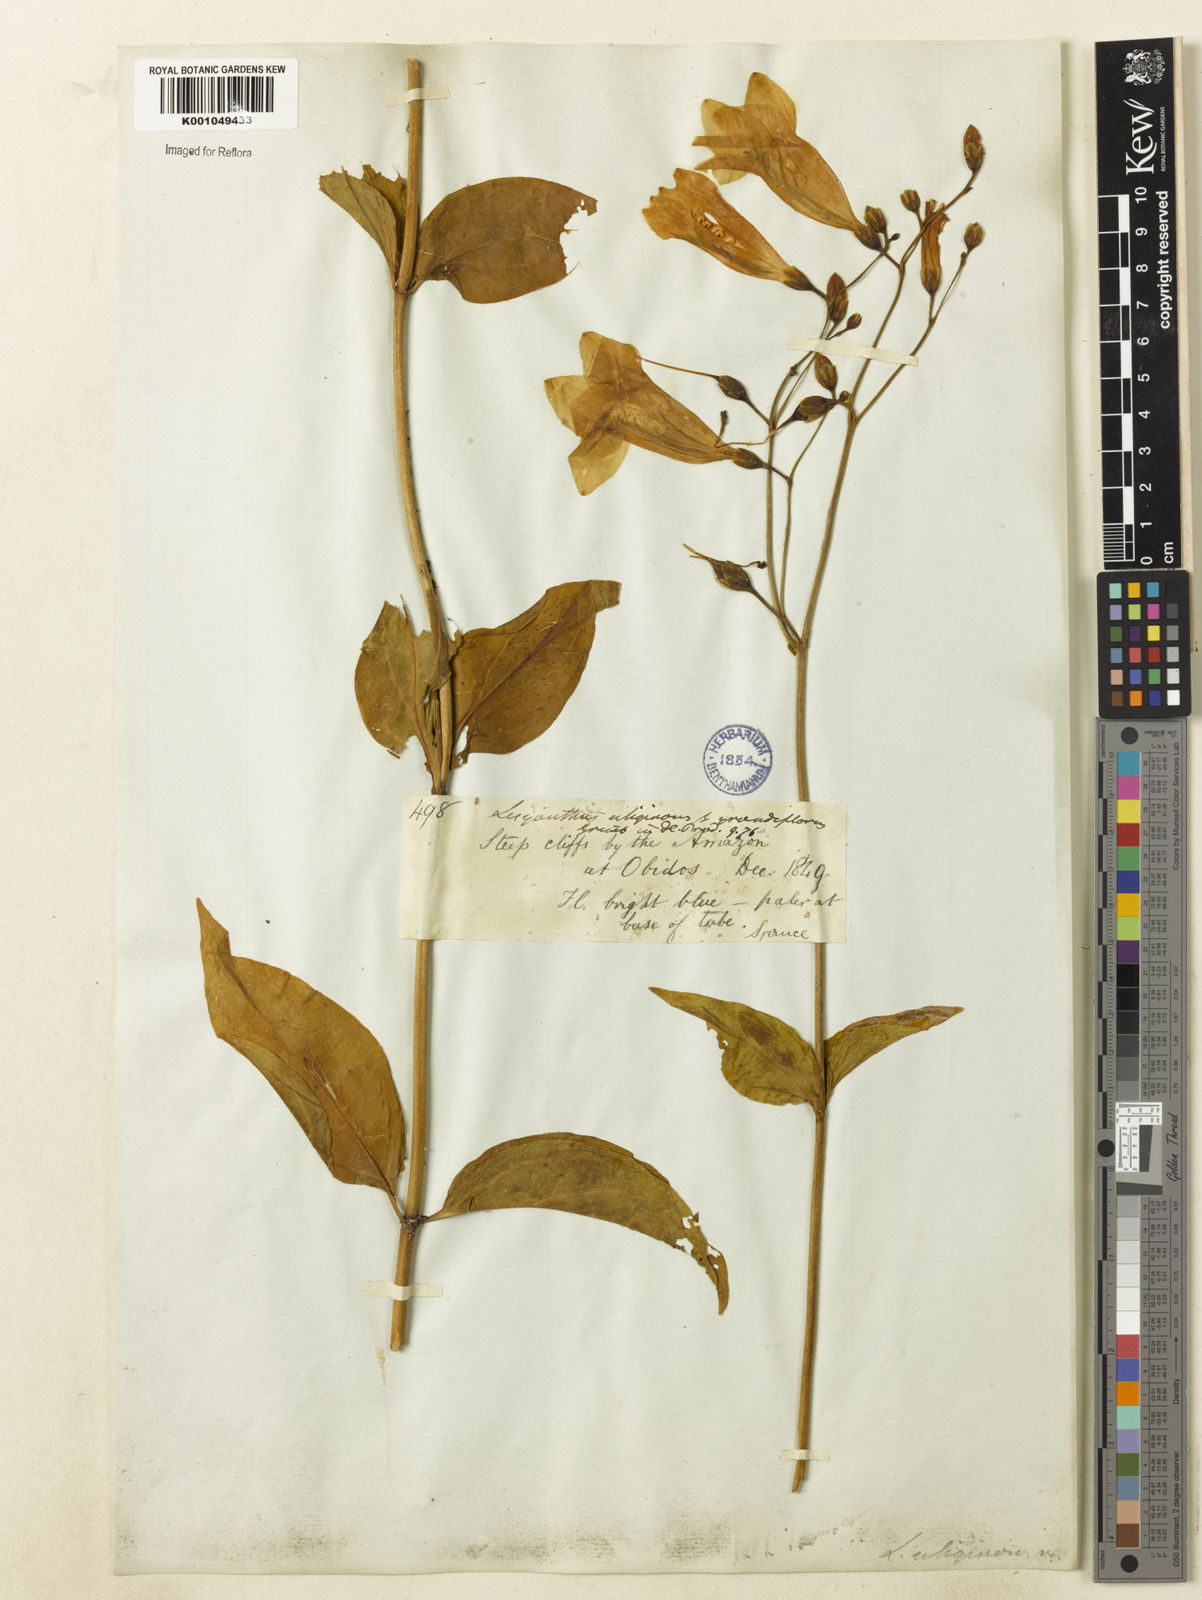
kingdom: Plantae
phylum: Tracheophyta
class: Magnoliopsida
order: Gentianales
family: Gentianaceae
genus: Chelonanthus
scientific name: Chelonanthus purpurascens
